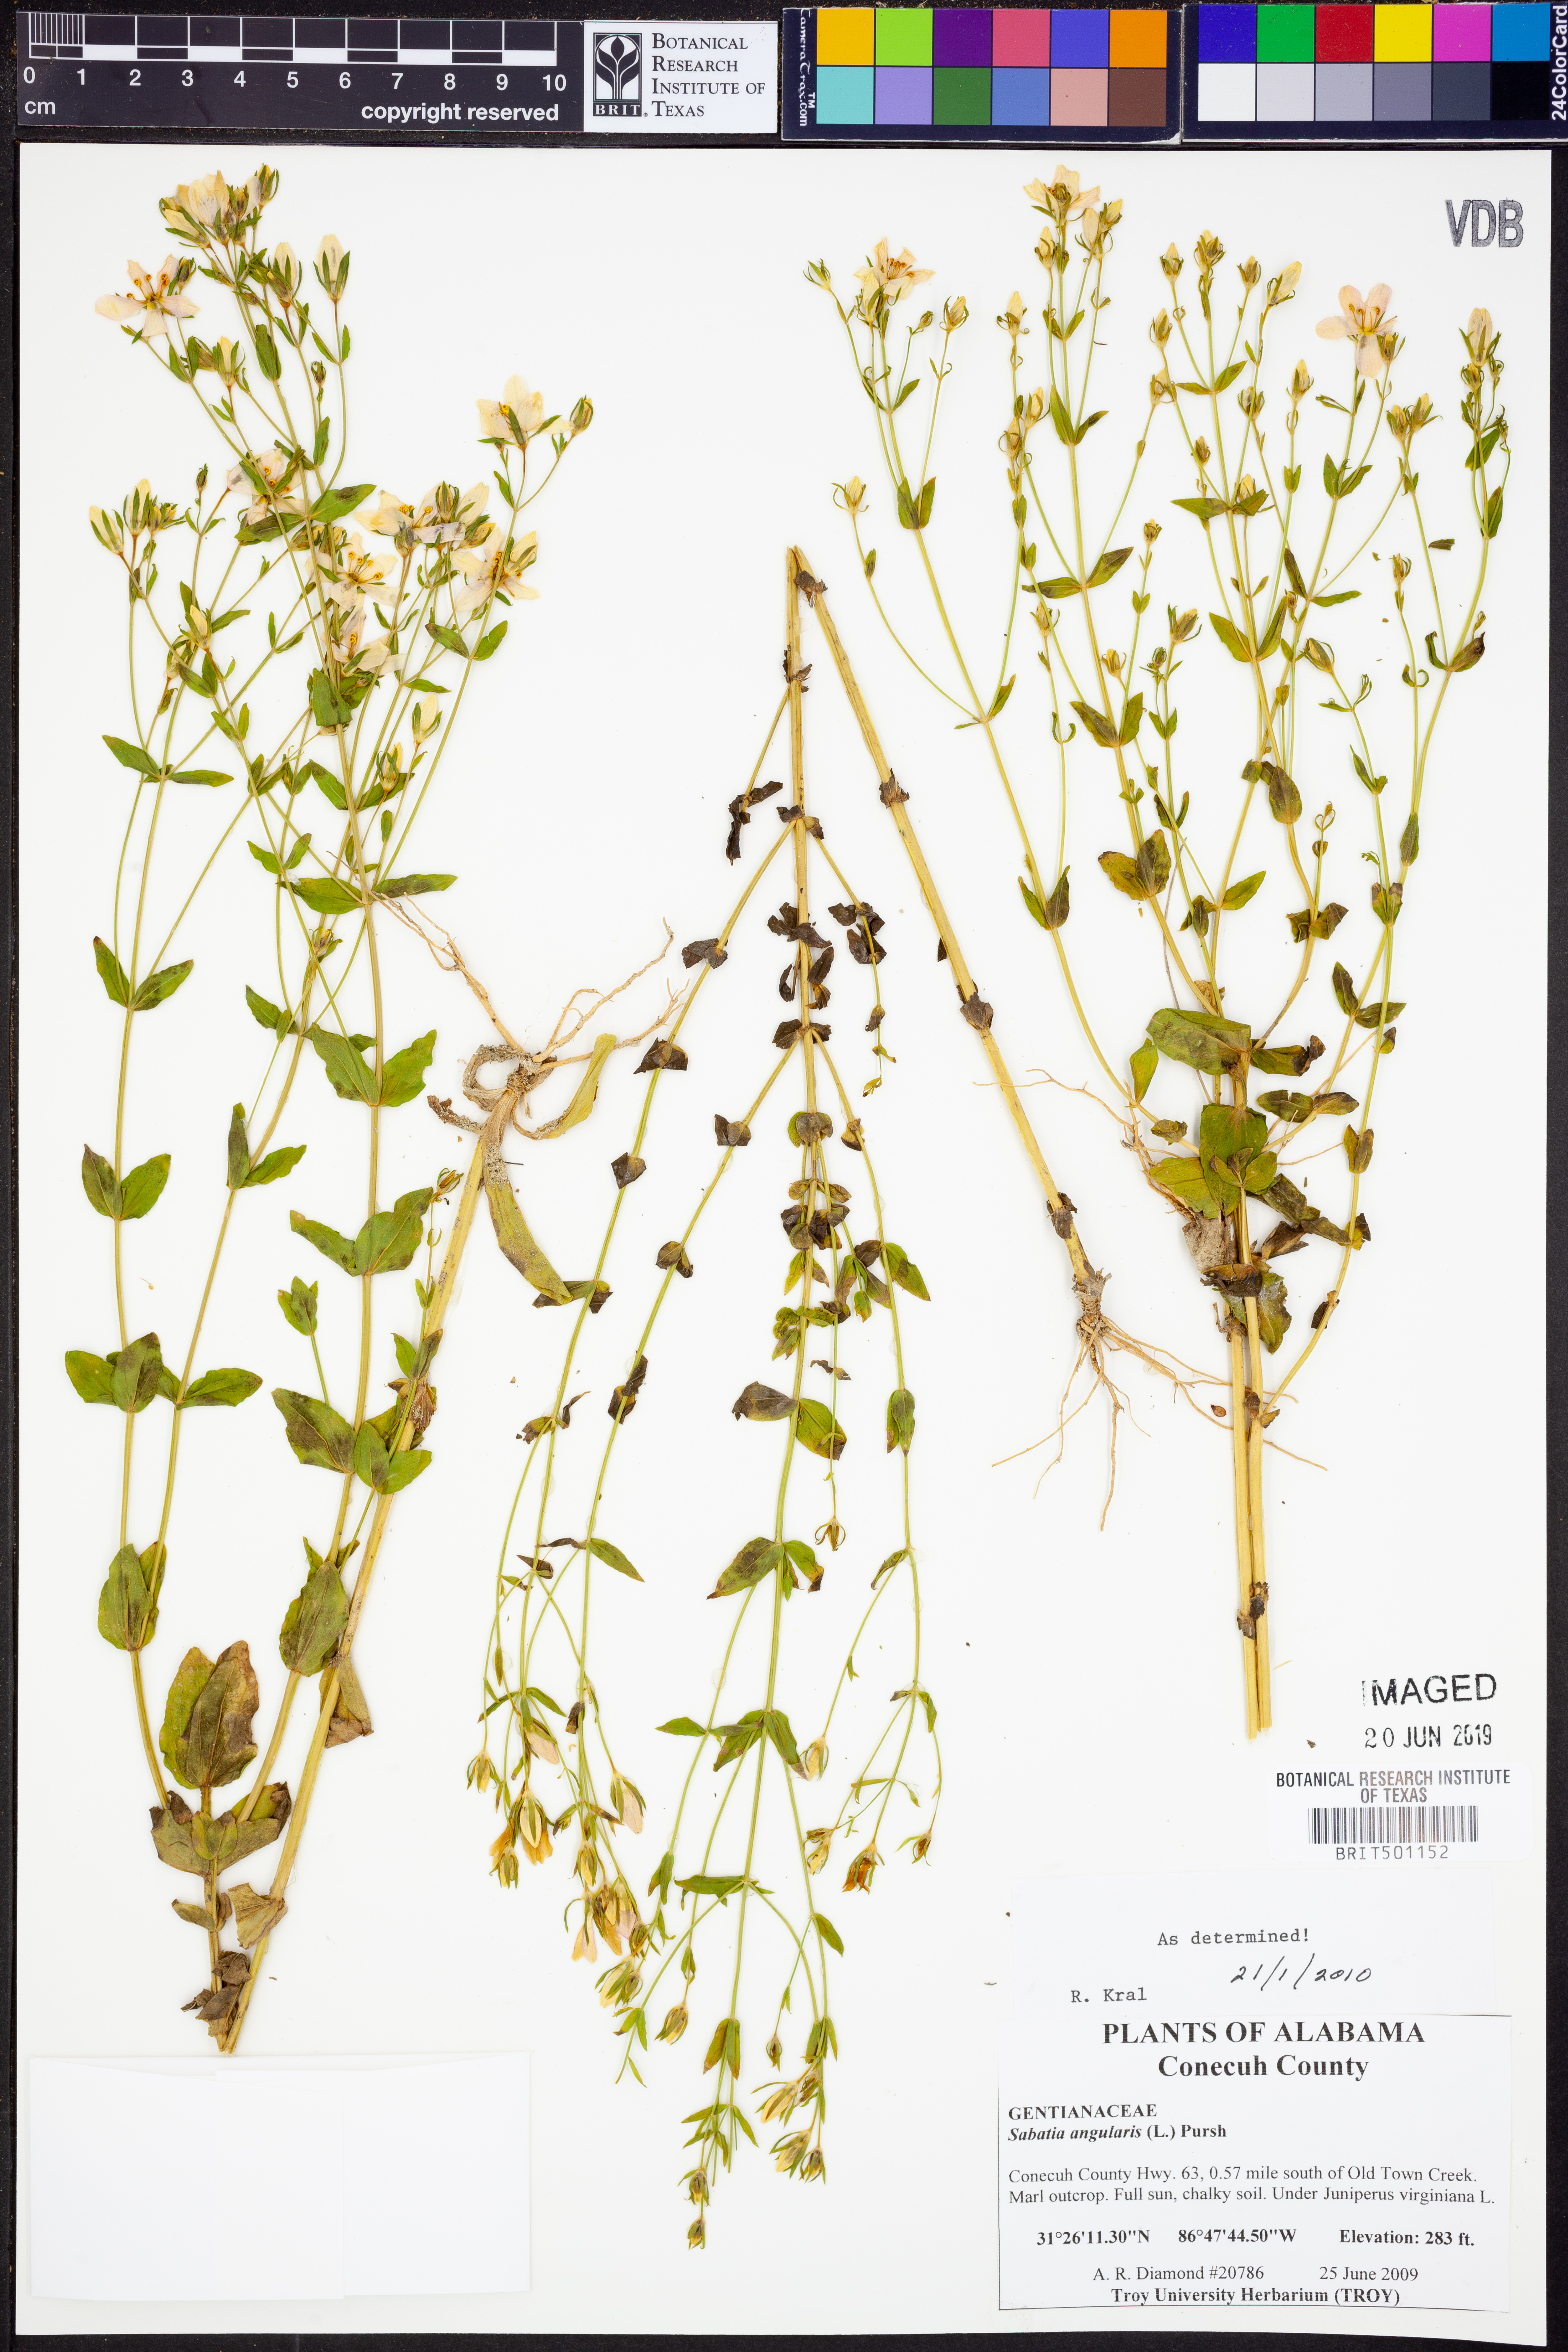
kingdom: Plantae
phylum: Tracheophyta
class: Magnoliopsida
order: Gentianales
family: Gentianaceae
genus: Sabatia
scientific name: Sabatia angularis
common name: Rose-pink
